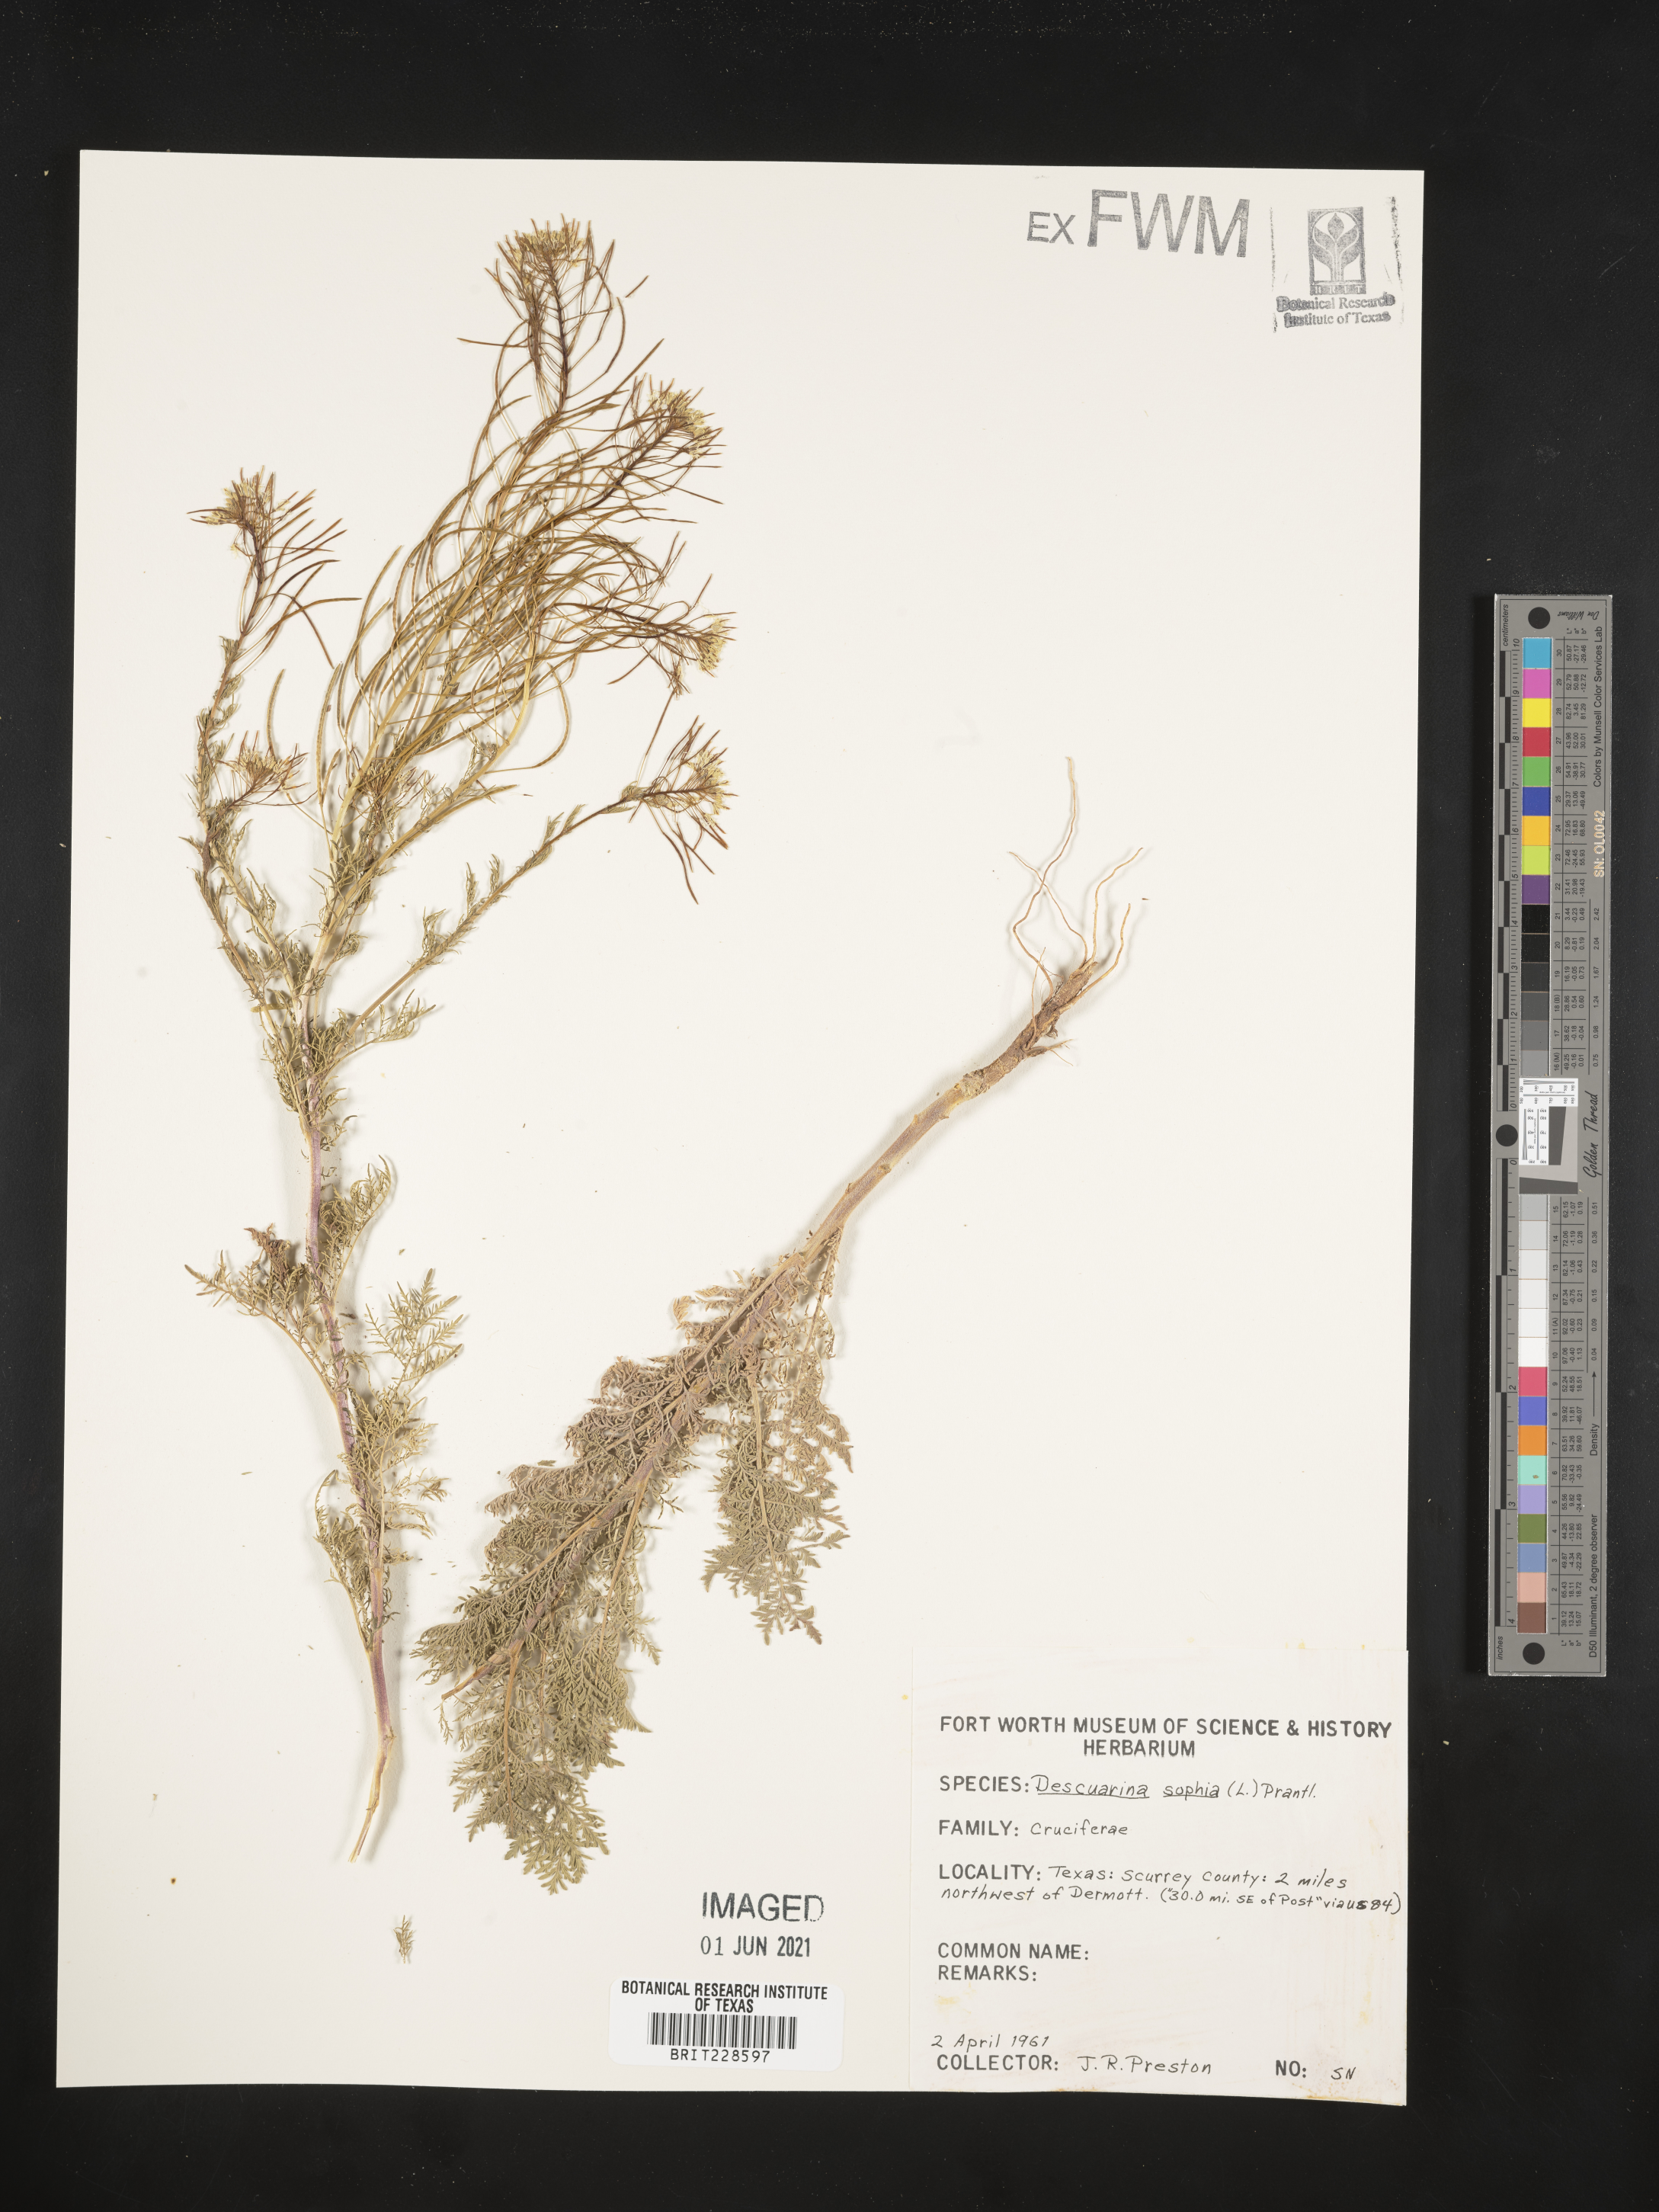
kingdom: Plantae
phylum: Tracheophyta
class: Magnoliopsida
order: Brassicales
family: Brassicaceae
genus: Descurainia
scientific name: Descurainia sophia
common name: Flixweed
